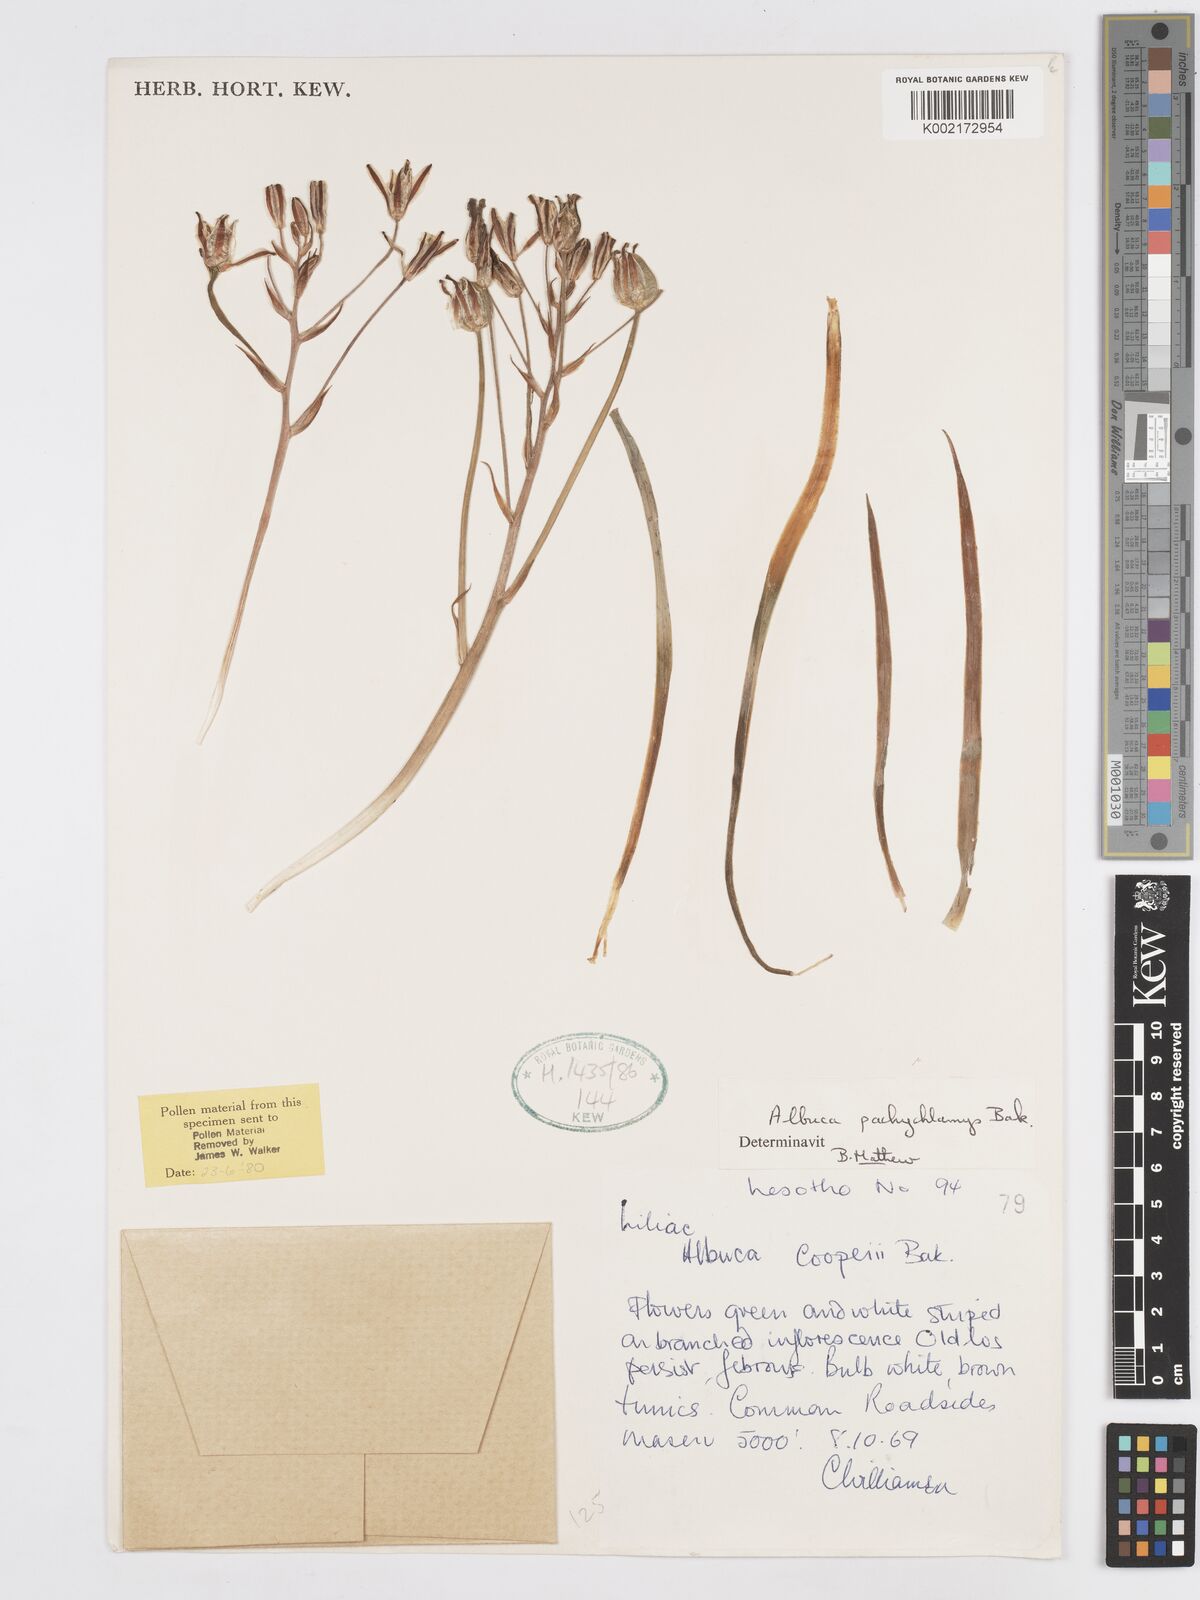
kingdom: Plantae
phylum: Tracheophyta
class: Liliopsida
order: Asparagales
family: Asparagaceae
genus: Albuca
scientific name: Albuca setosa
